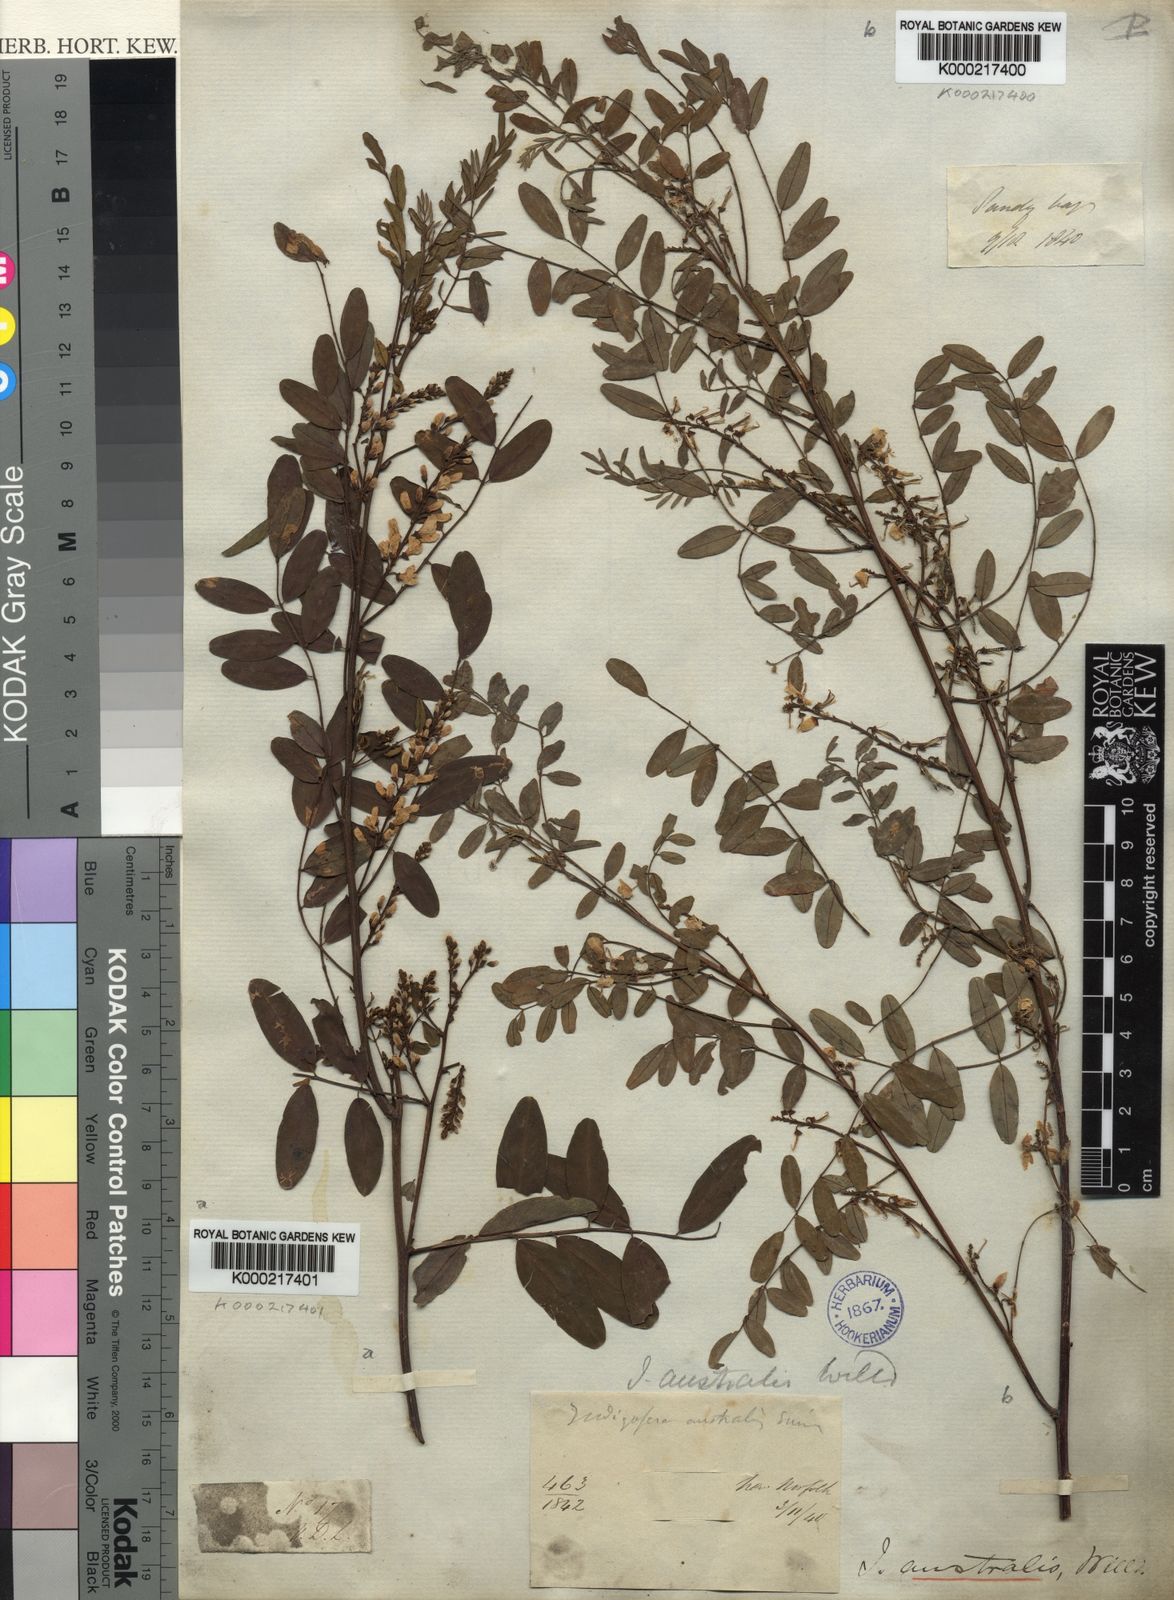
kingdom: Plantae
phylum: Tracheophyta
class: Magnoliopsida
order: Fabales
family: Fabaceae
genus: Indigofera
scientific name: Indigofera
